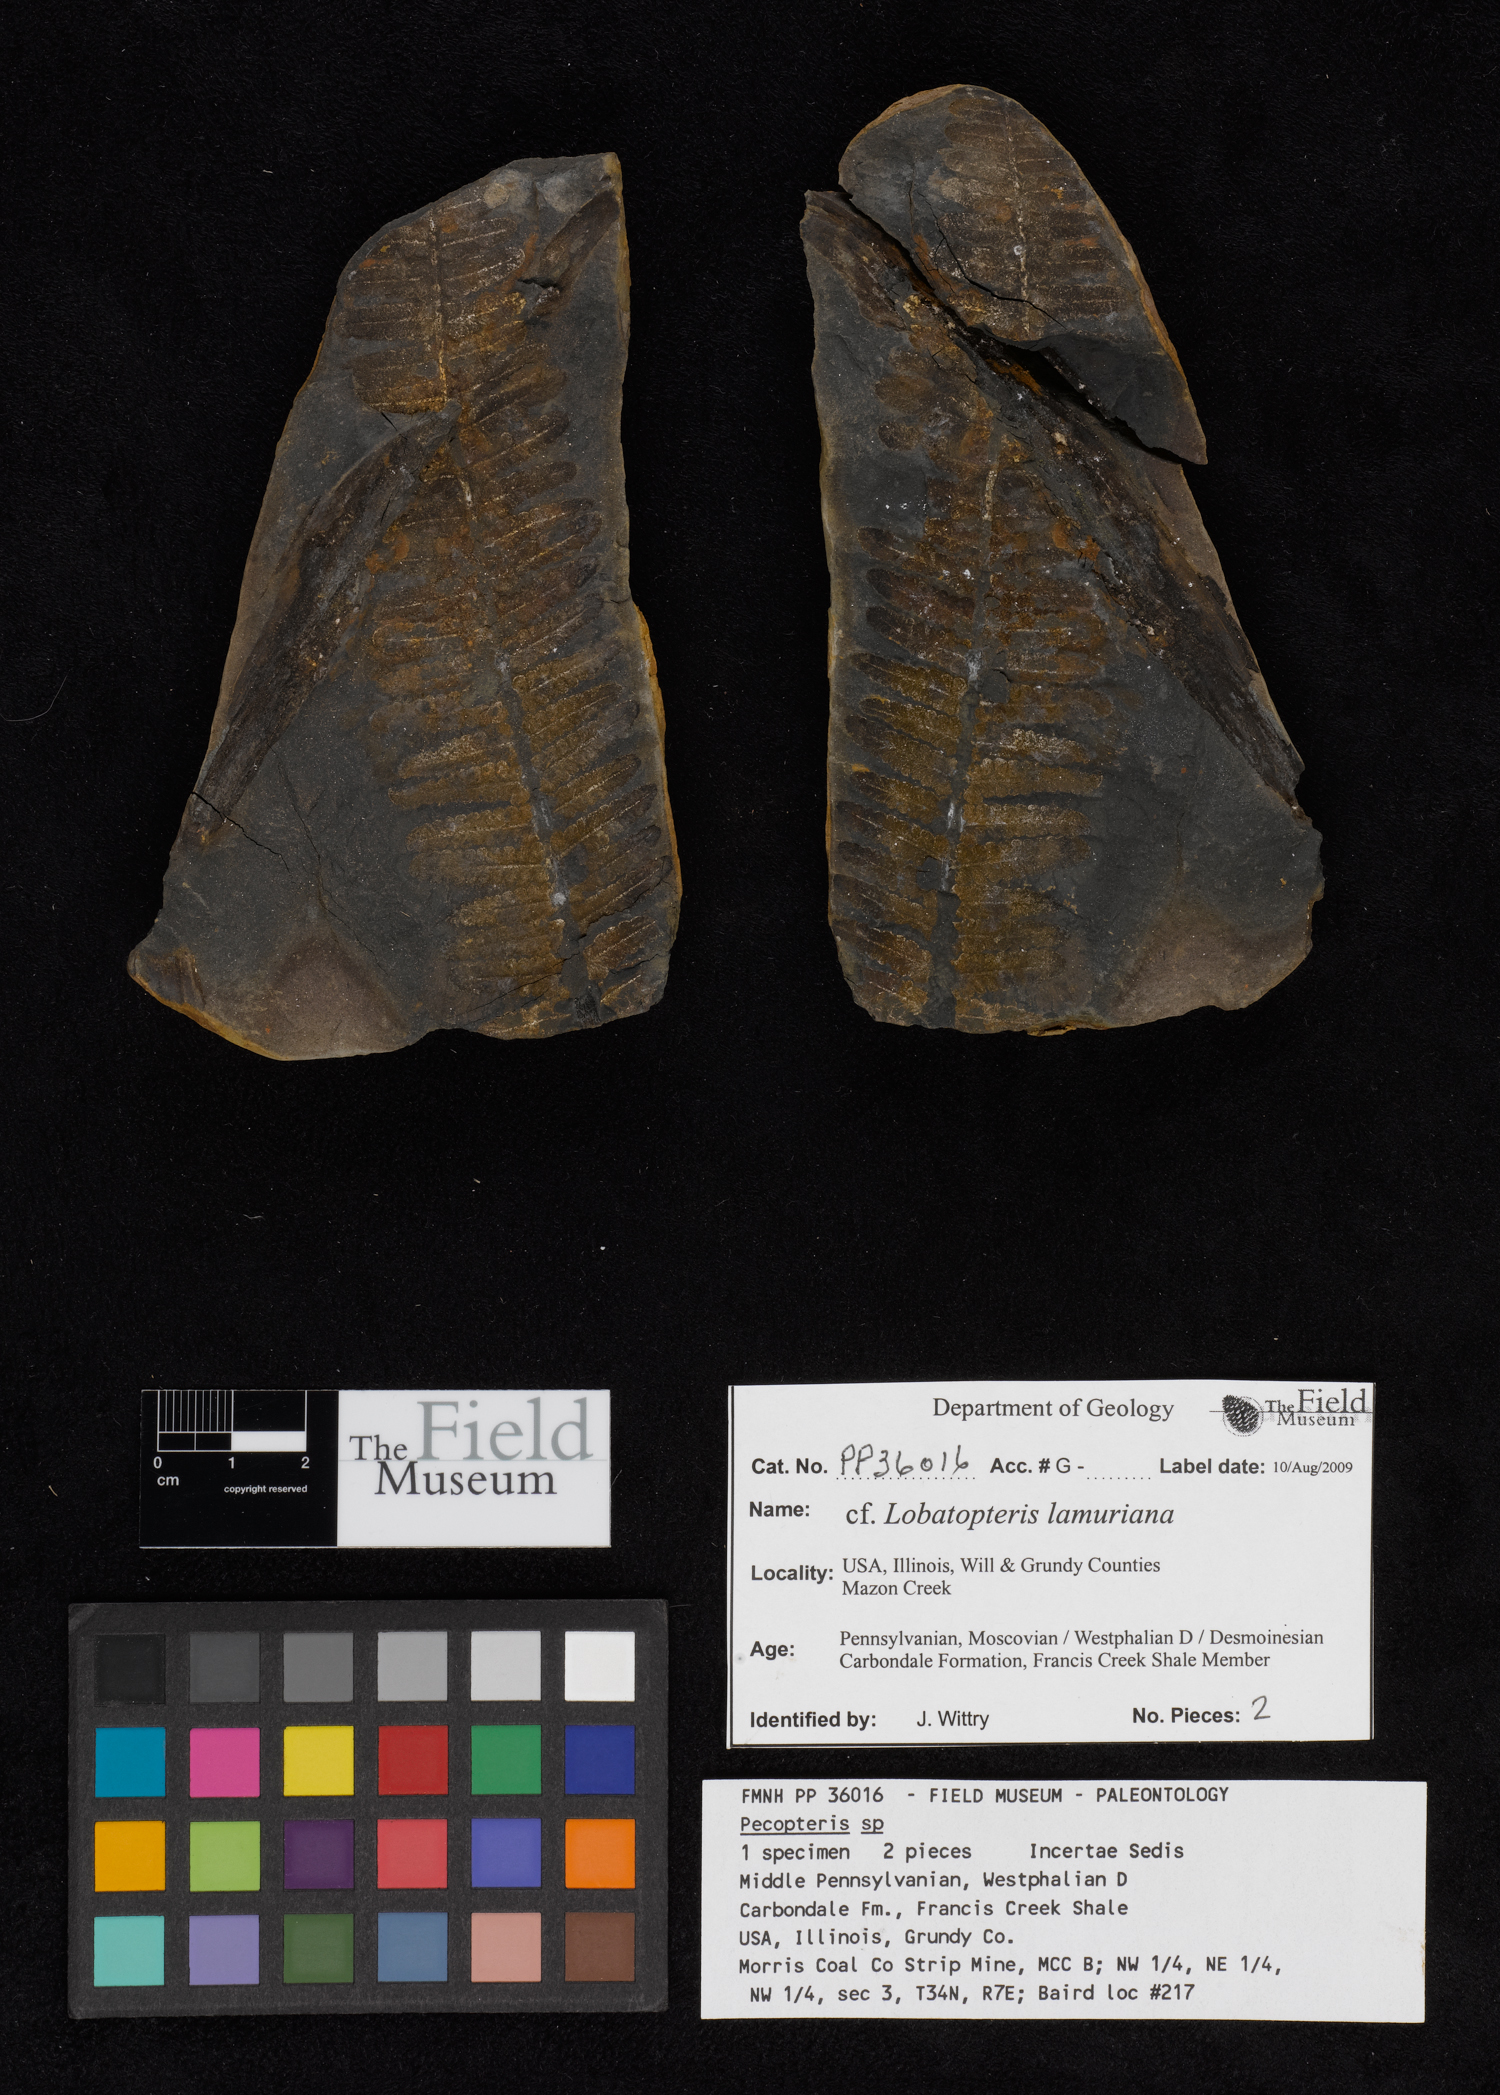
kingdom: Plantae
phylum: Tracheophyta
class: Polypodiopsida
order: Marattiales
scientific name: Marattiales
